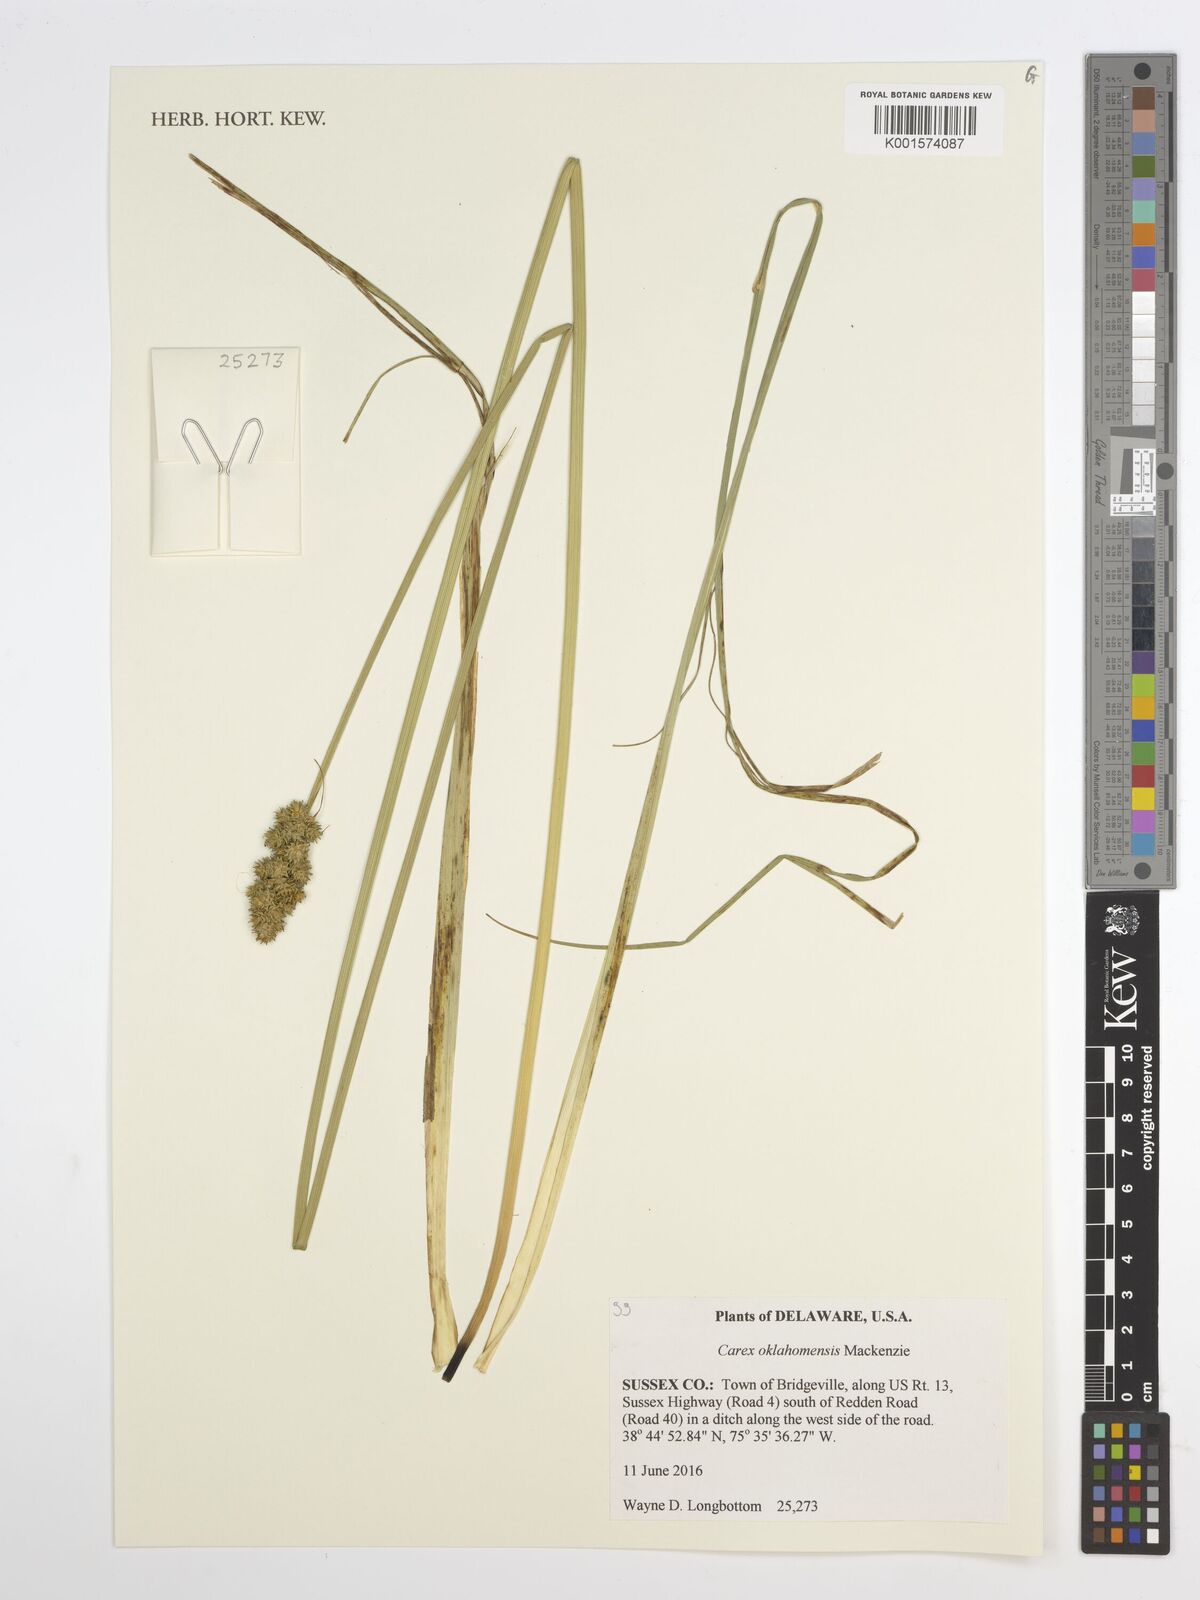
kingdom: Plantae
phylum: Tracheophyta
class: Liliopsida
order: Poales
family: Cyperaceae
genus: Carex
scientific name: Carex oklahomensis
